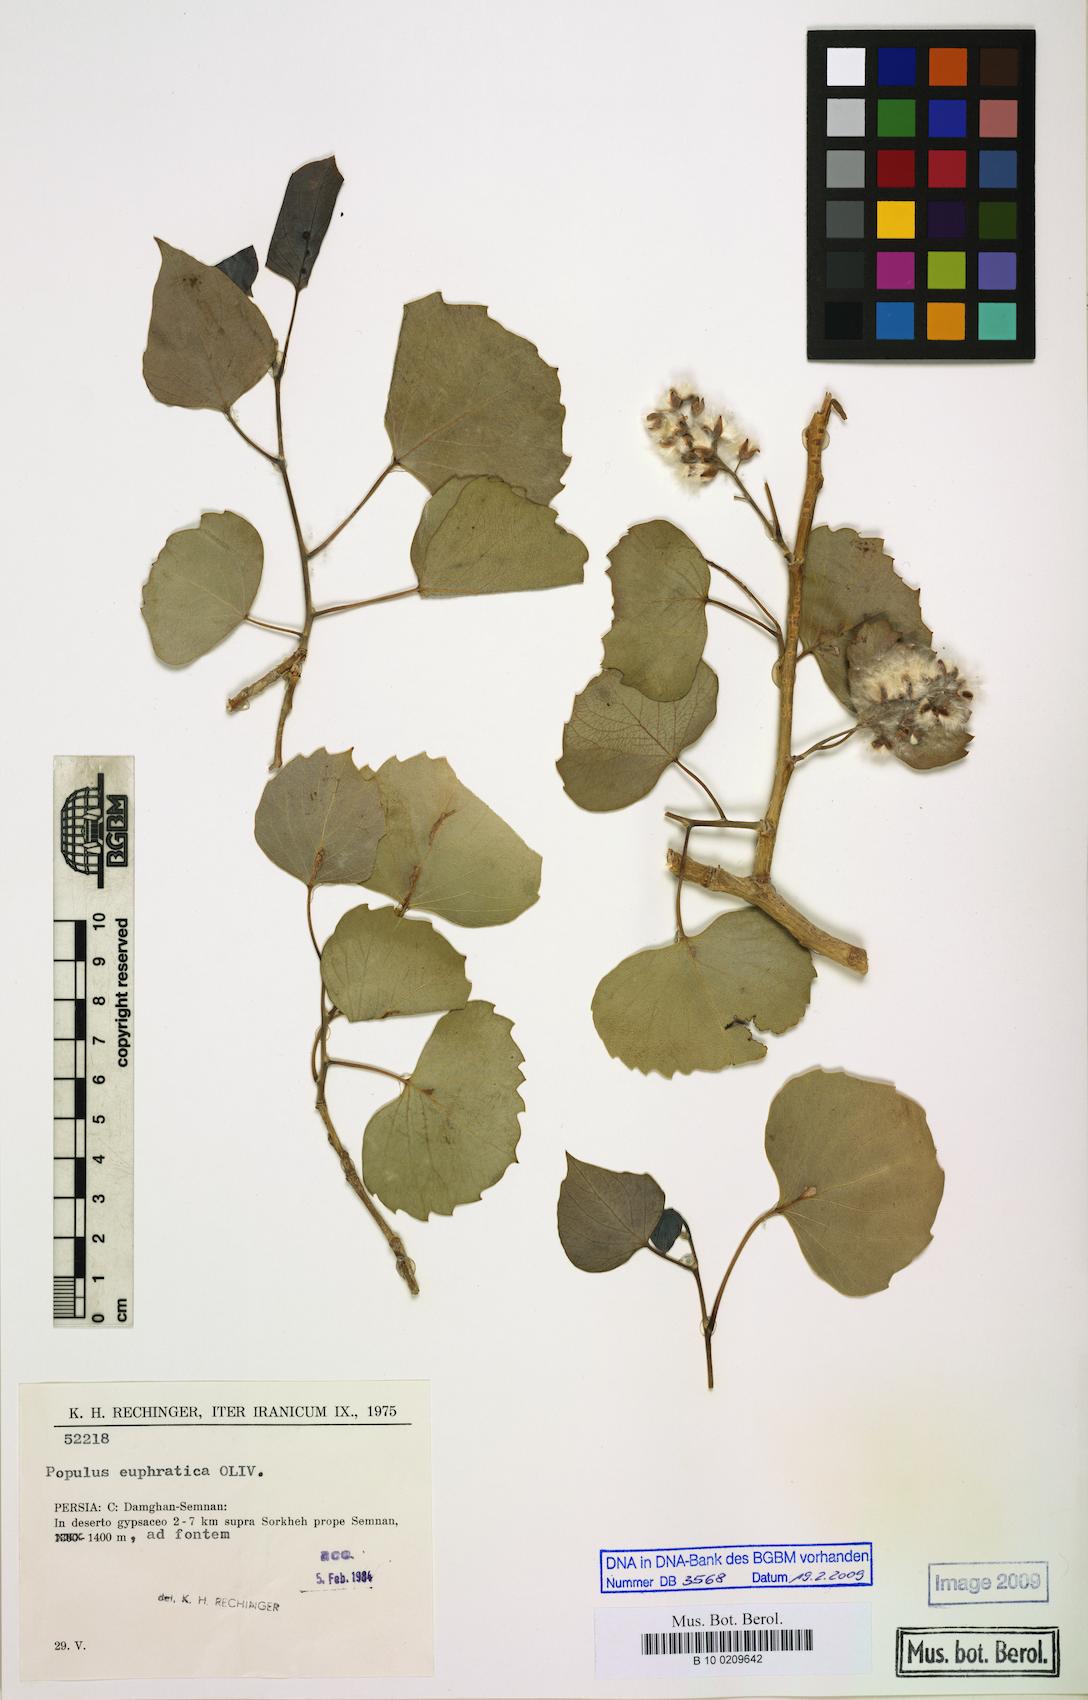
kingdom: Plantae
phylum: Tracheophyta
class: Magnoliopsida
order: Malpighiales
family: Salicaceae
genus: Populus
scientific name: Populus euphratica
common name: Euphrates poplar
